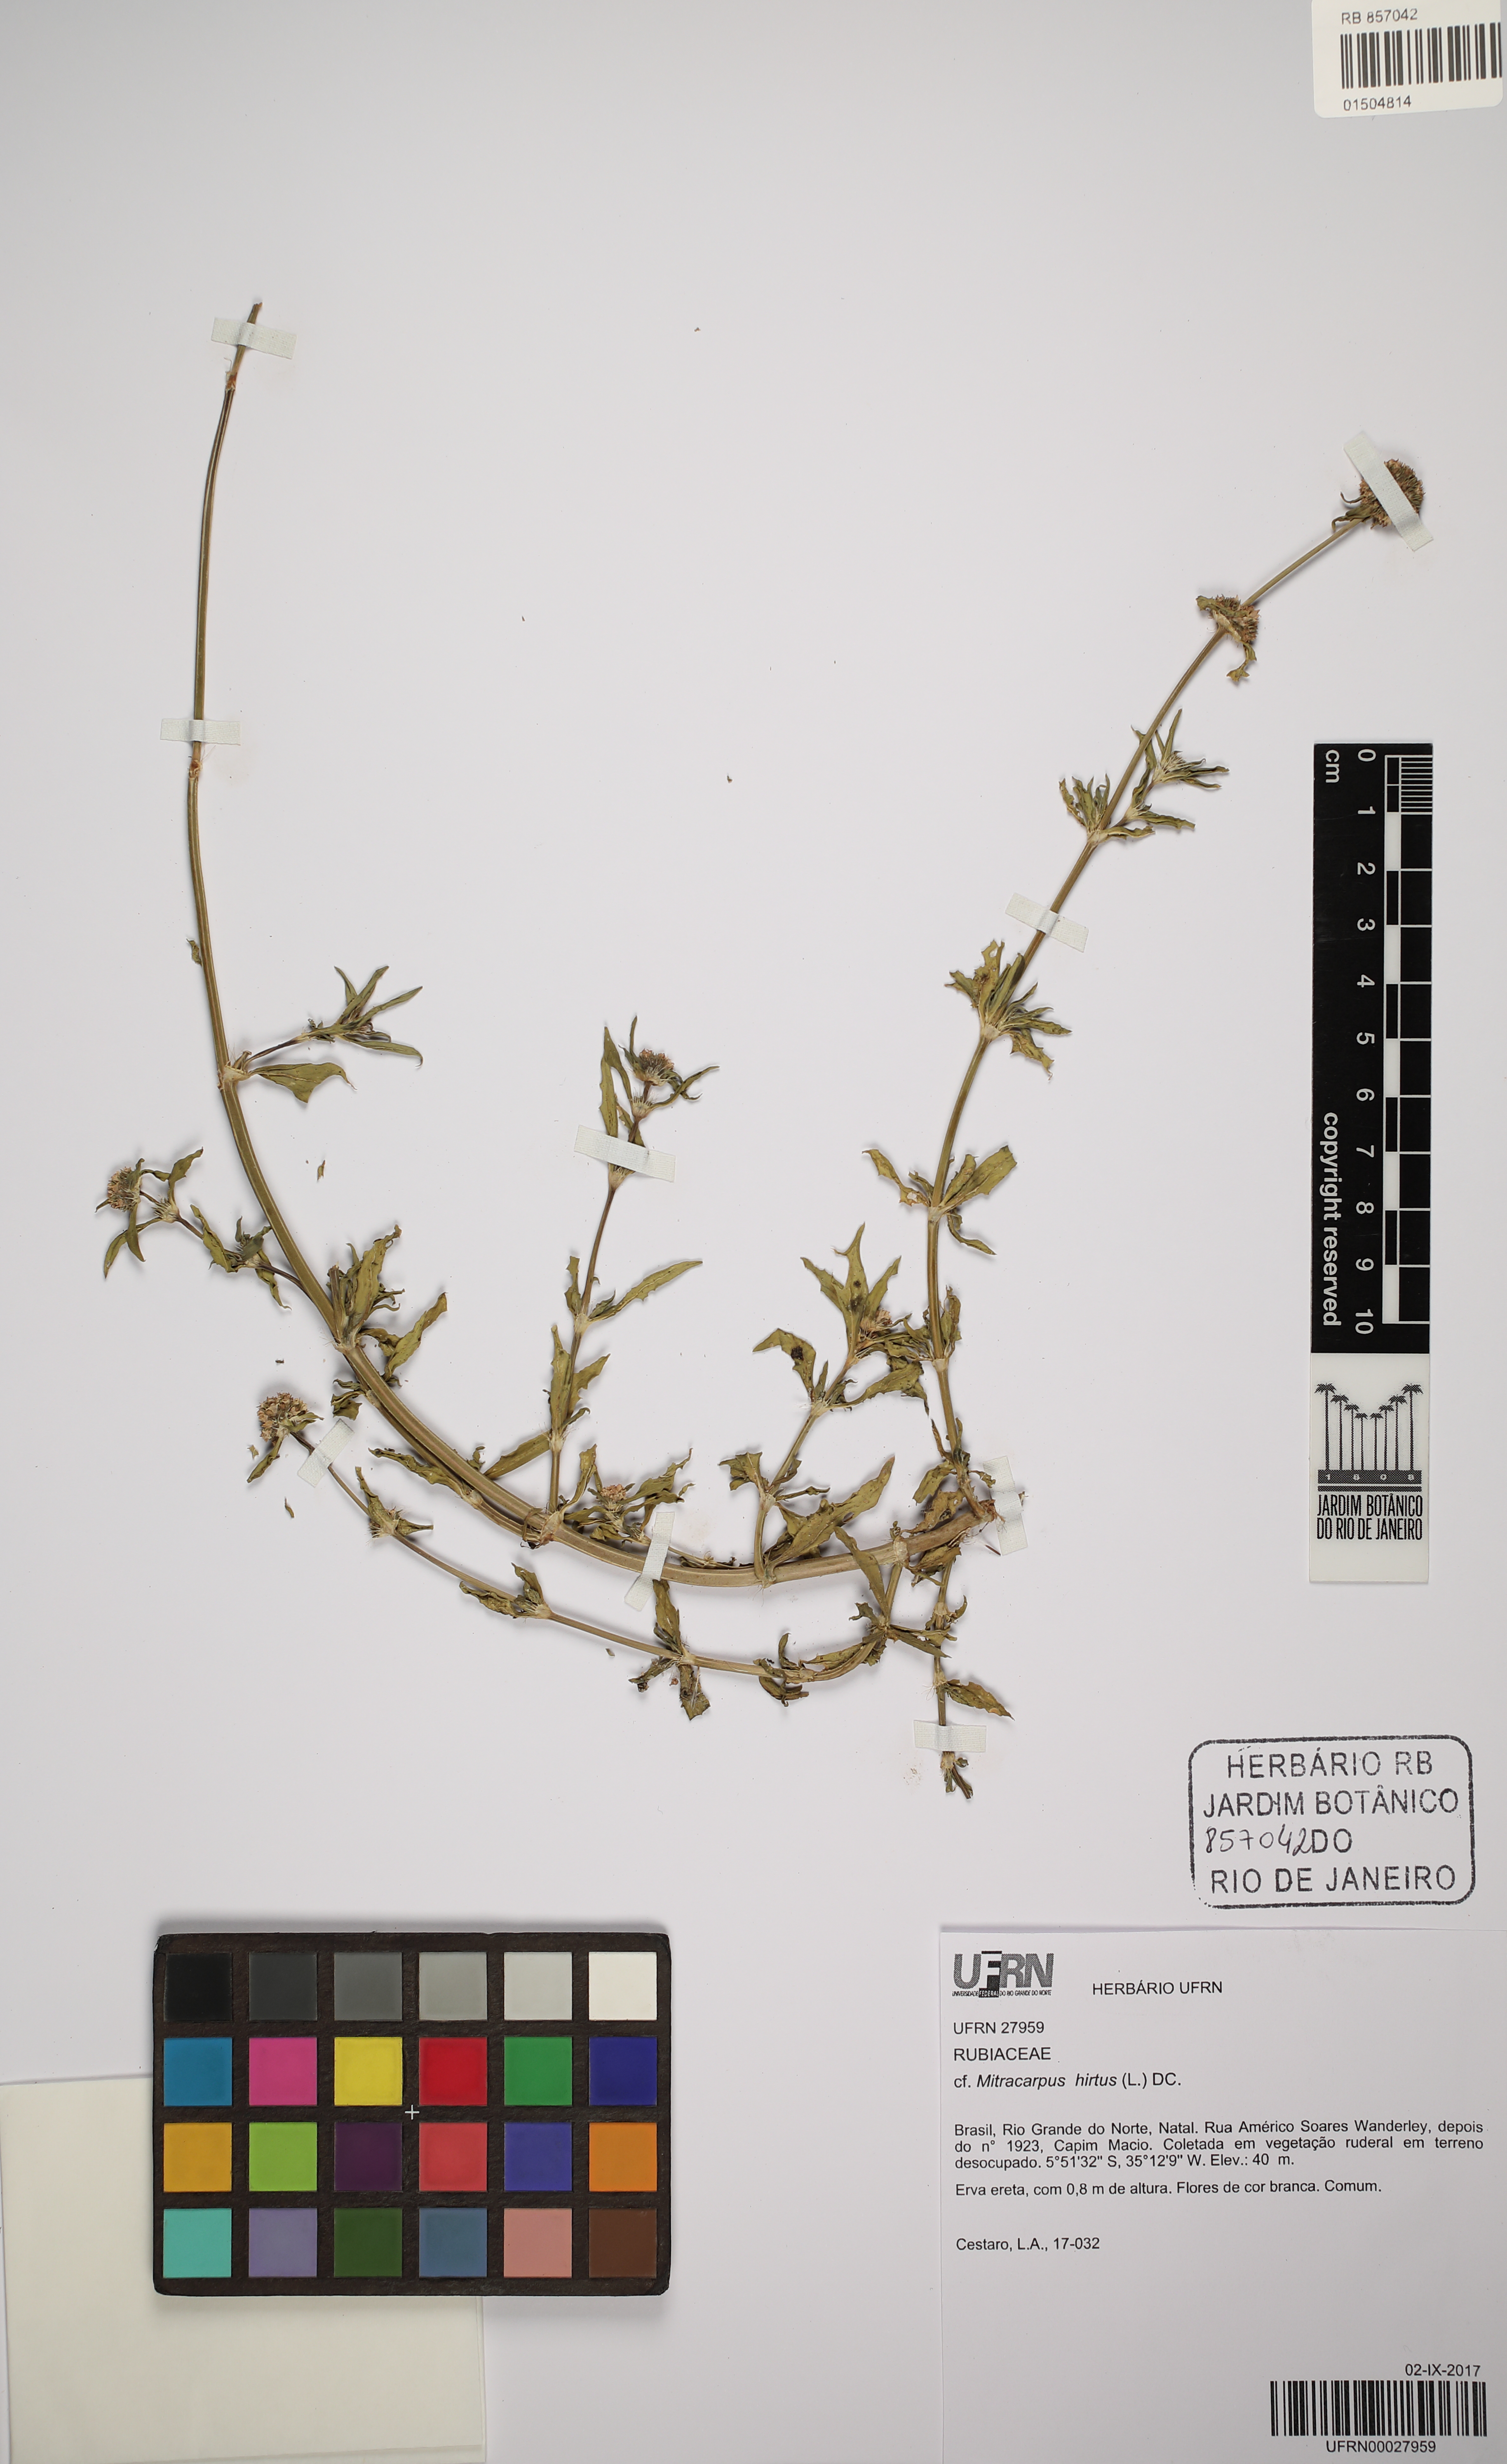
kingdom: Plantae
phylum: Tracheophyta
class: Magnoliopsida
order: Gentianales
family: Rubiaceae
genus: Mitracarpus
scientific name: Mitracarpus hirtus
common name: Tropical girdlepod
